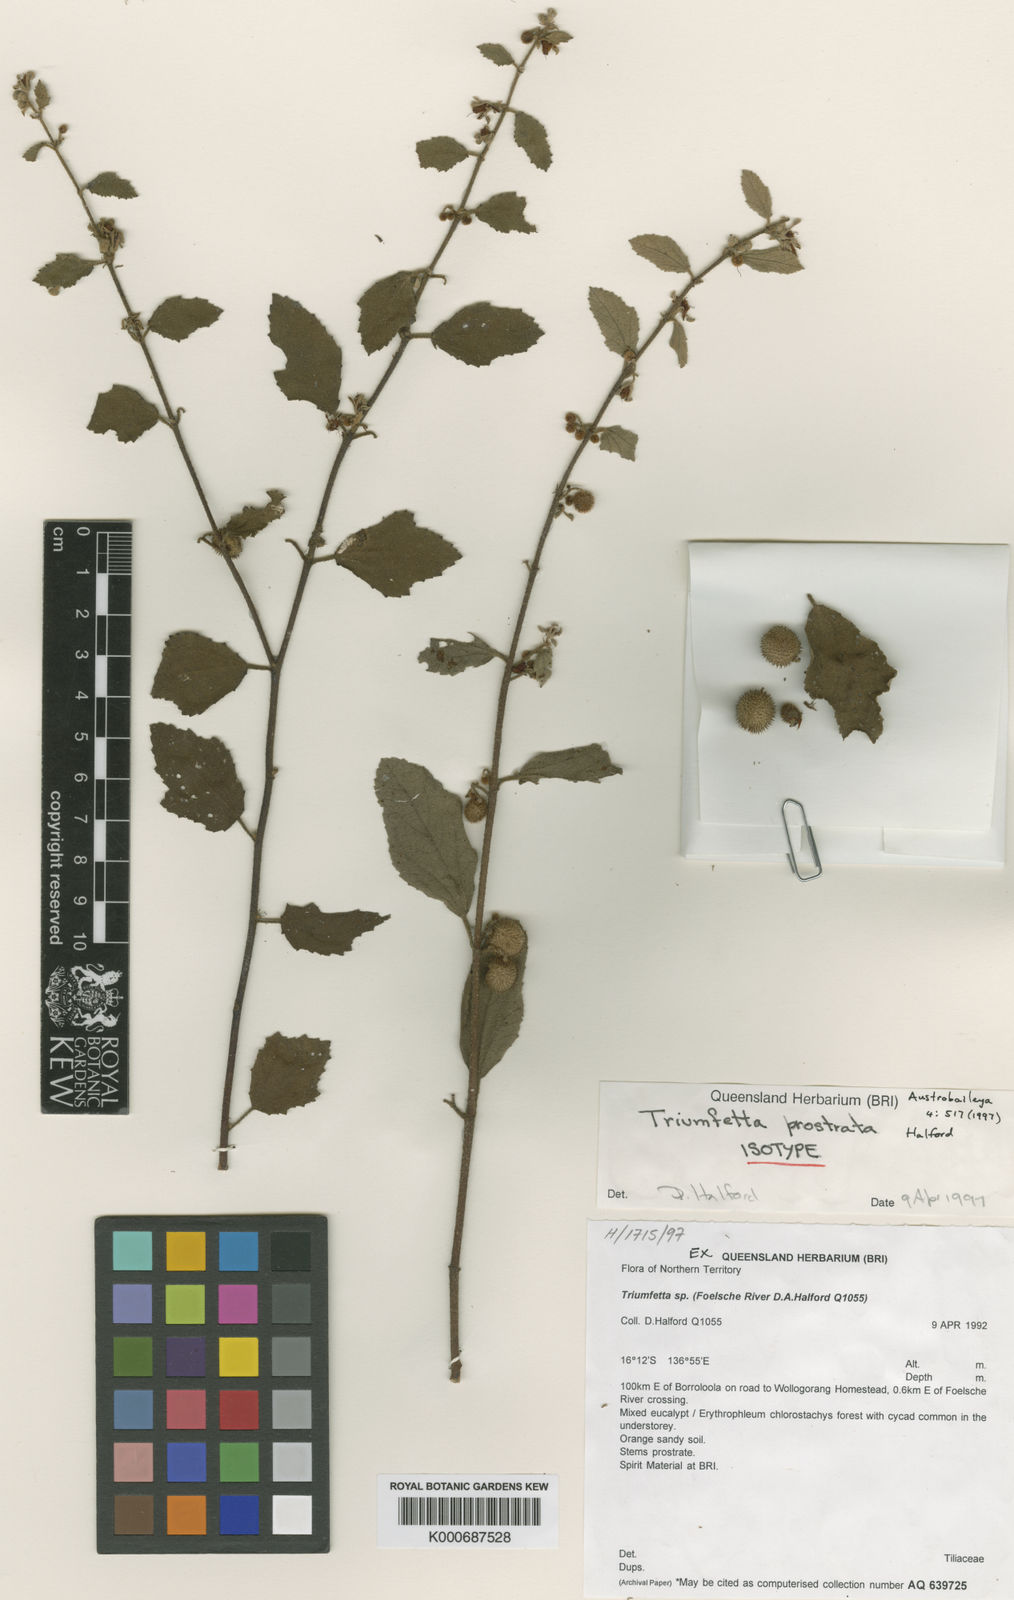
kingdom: Plantae
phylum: Tracheophyta
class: Magnoliopsida
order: Malvales
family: Malvaceae
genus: Triumfetta
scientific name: Triumfetta prostrata
